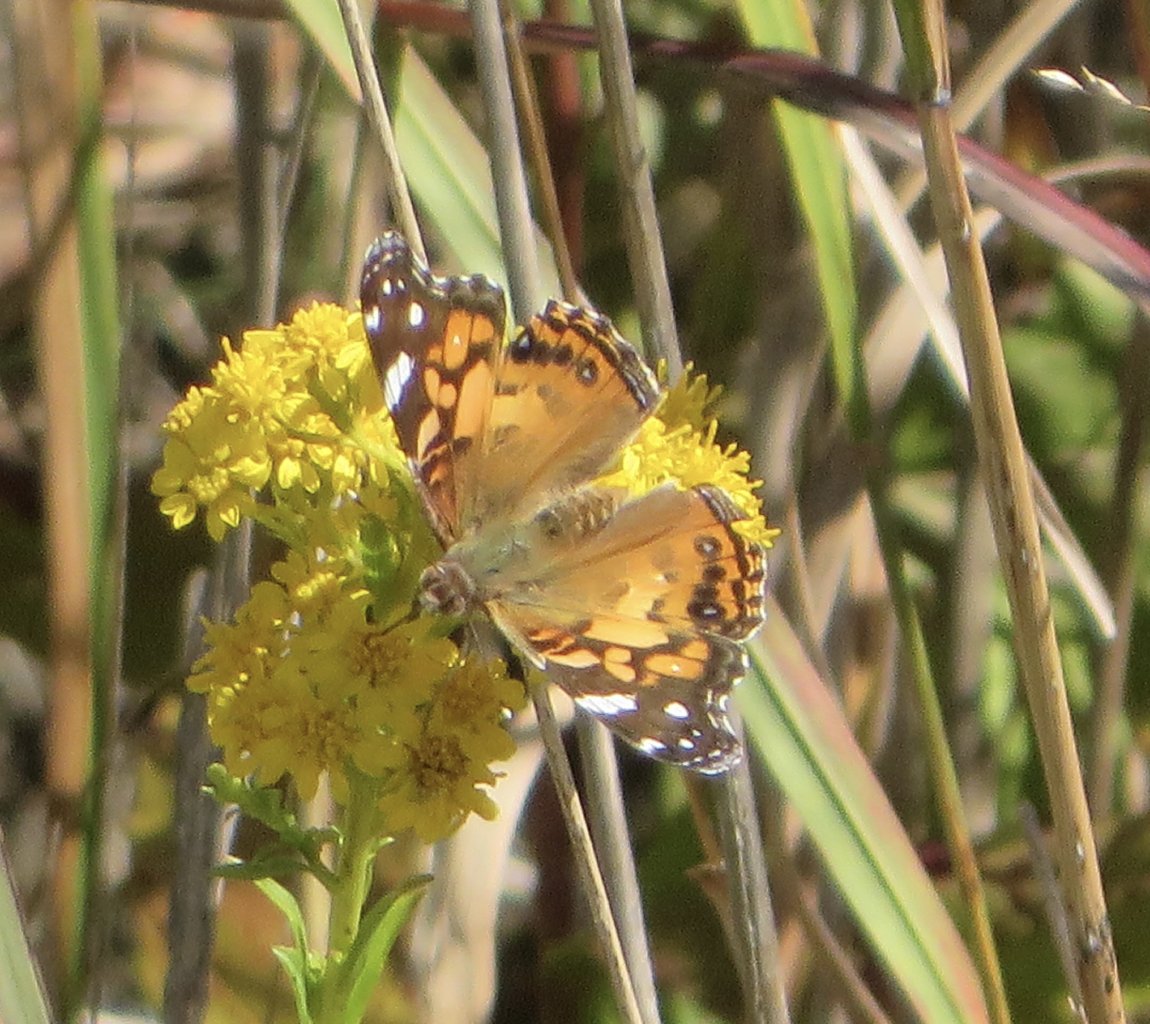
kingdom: Animalia
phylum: Arthropoda
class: Insecta
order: Lepidoptera
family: Nymphalidae
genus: Vanessa
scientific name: Vanessa virginiensis
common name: American Lady
